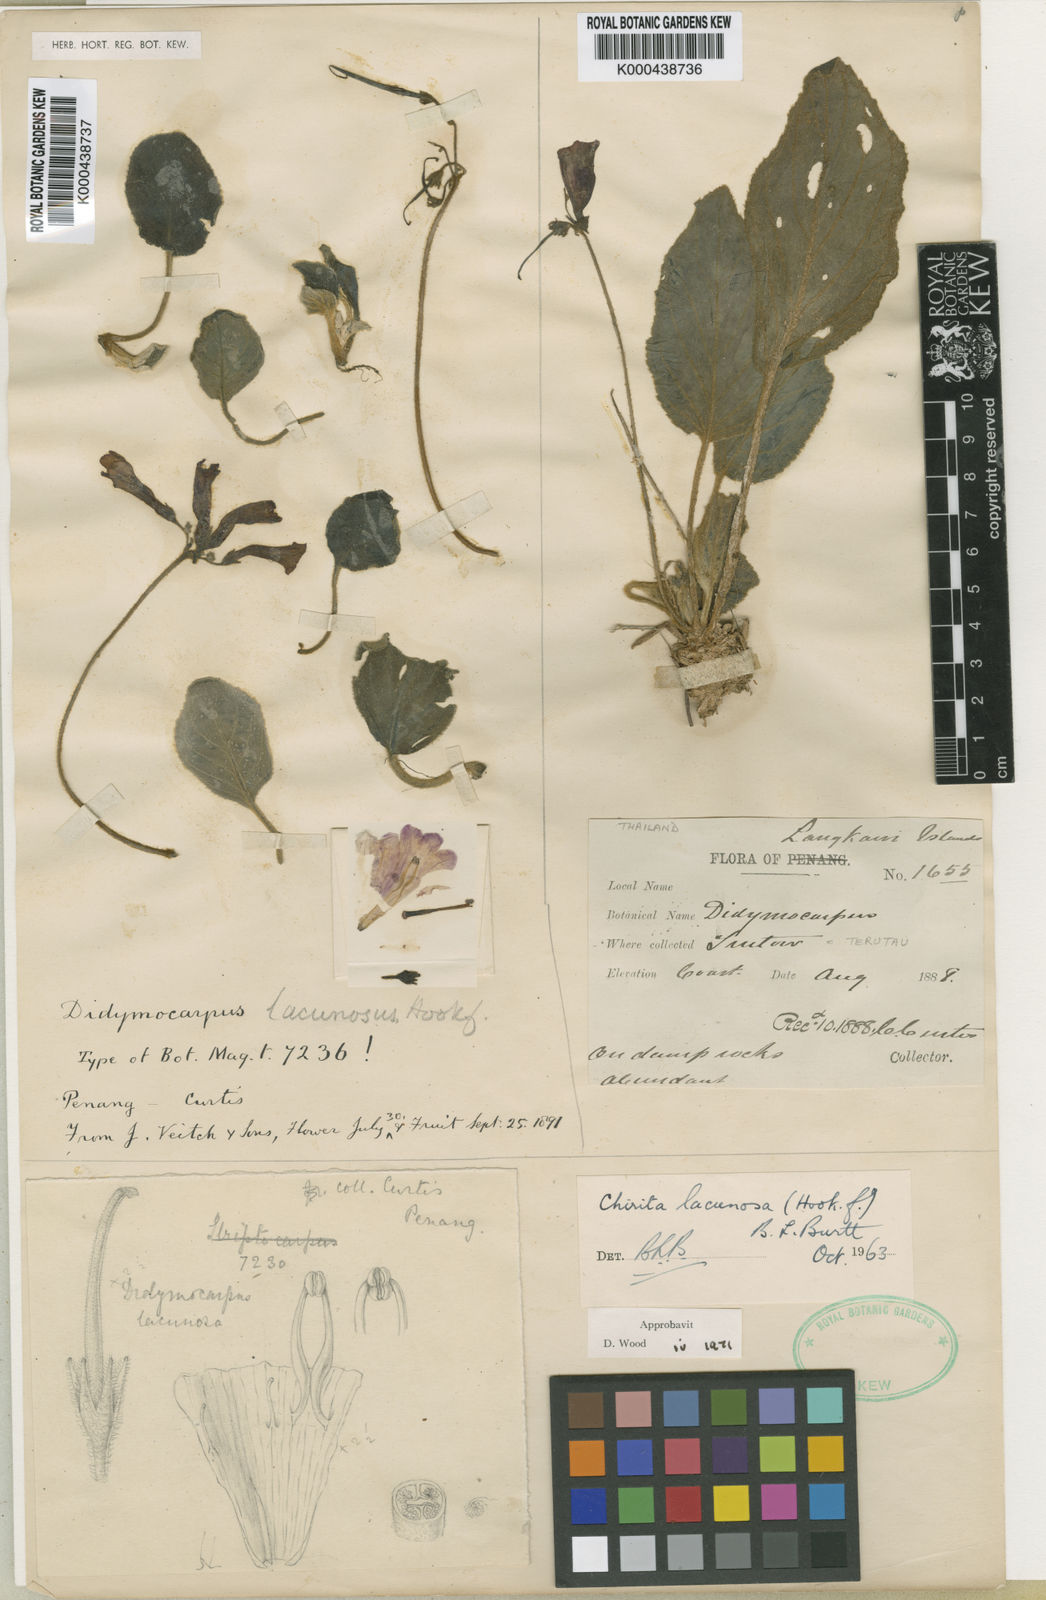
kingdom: Plantae
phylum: Tracheophyta
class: Magnoliopsida
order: Lamiales
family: Gesneriaceae
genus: Damrongia
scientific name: Damrongia lacunosa
